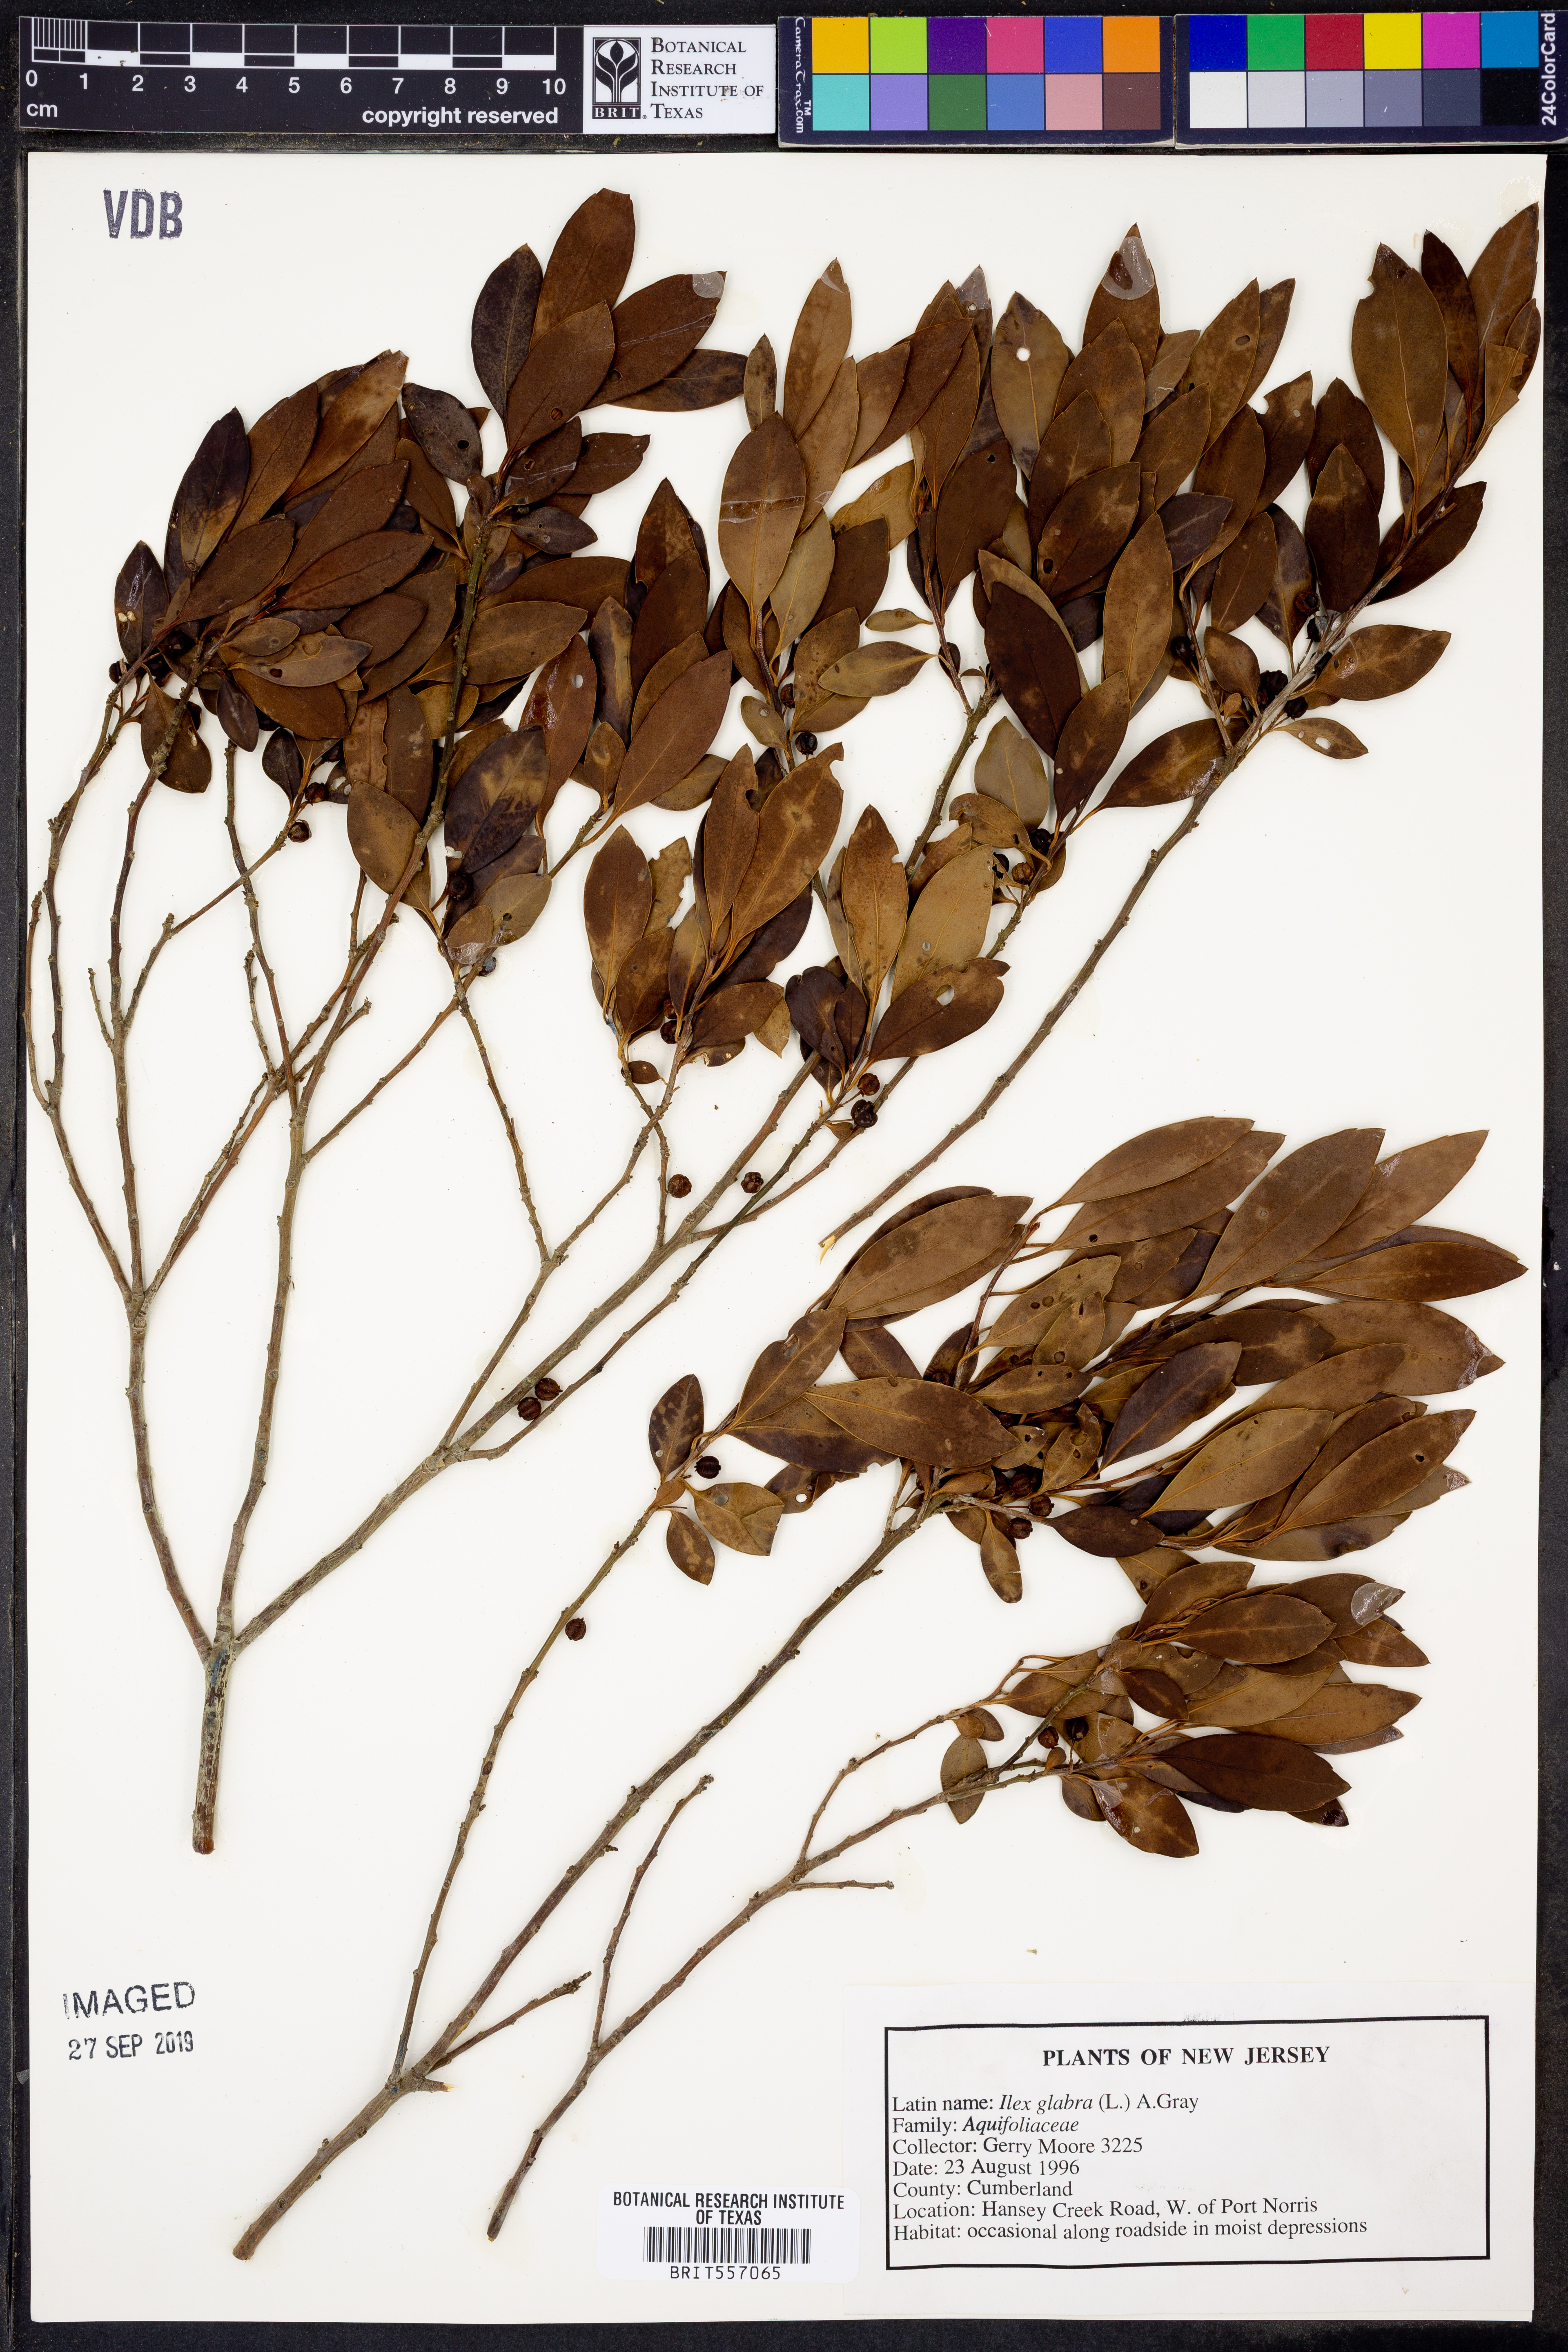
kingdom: Plantae
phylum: Tracheophyta
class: Magnoliopsida
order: Aquifoliales
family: Aquifoliaceae
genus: Ilex
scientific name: Ilex glabra
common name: Bitter gallberry
